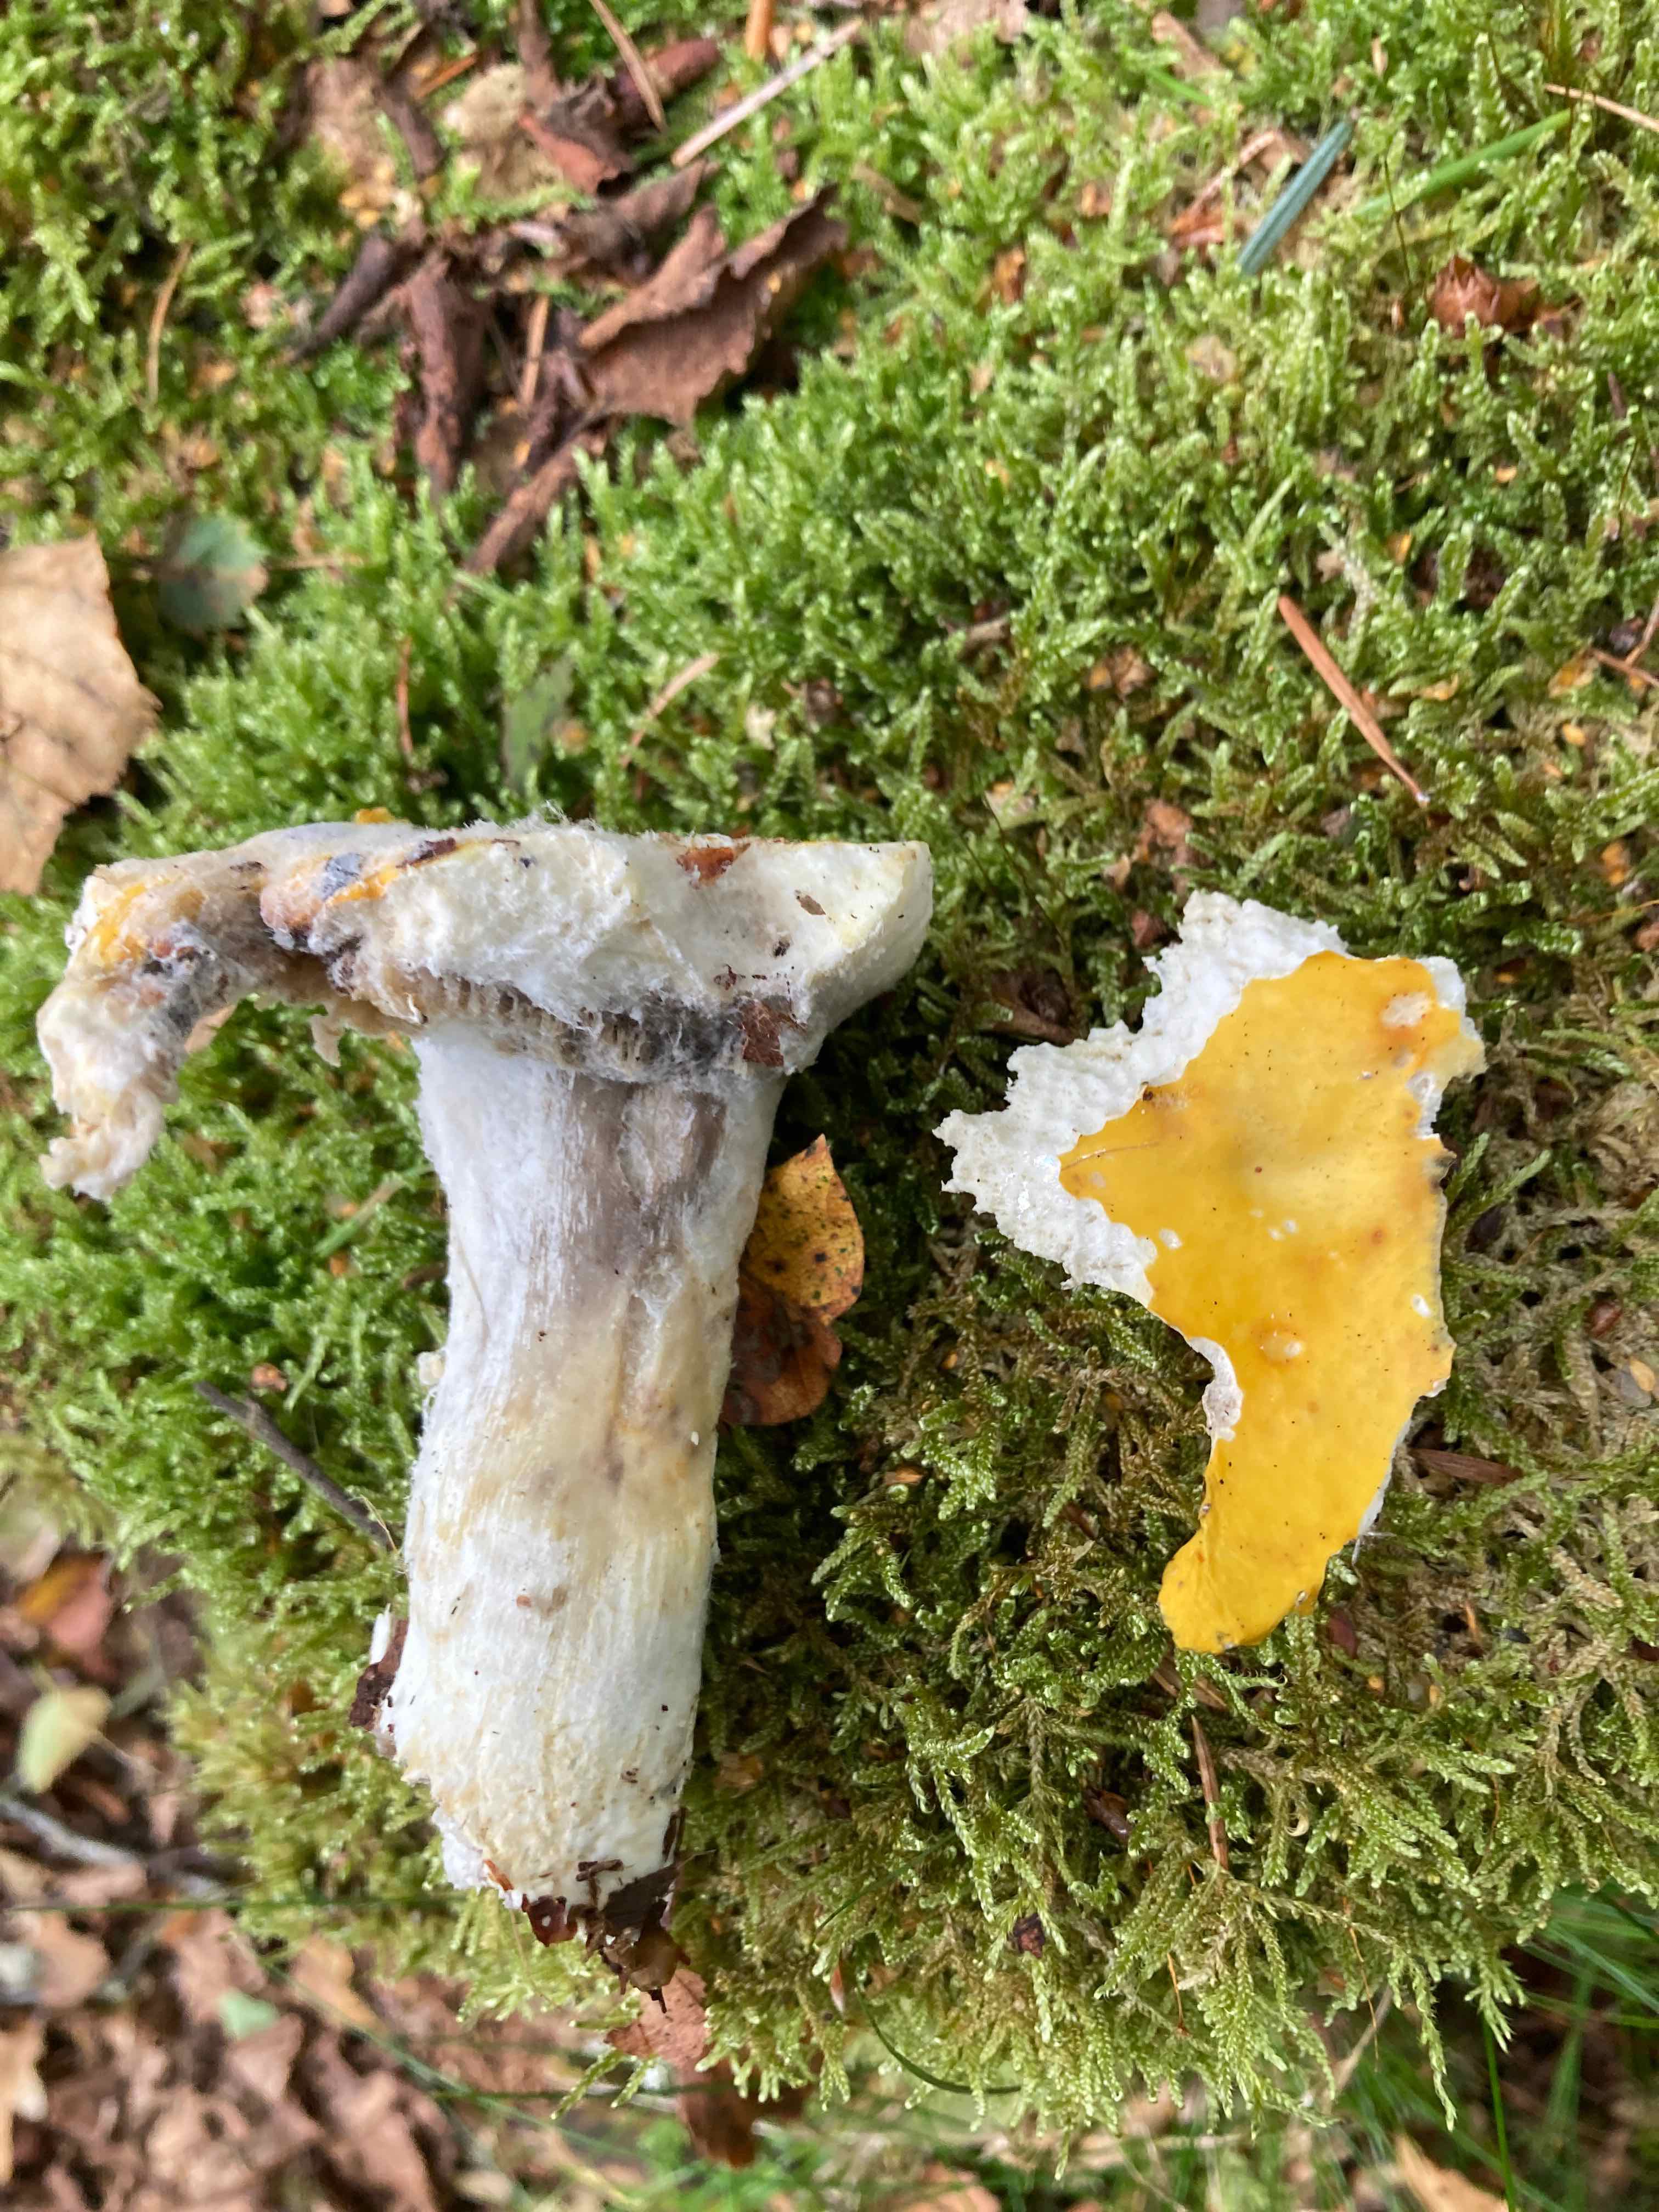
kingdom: Fungi
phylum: Basidiomycota
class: Agaricomycetes
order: Russulales
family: Russulaceae
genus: Russula
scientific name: Russula claroflava
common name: birke-skørhat
